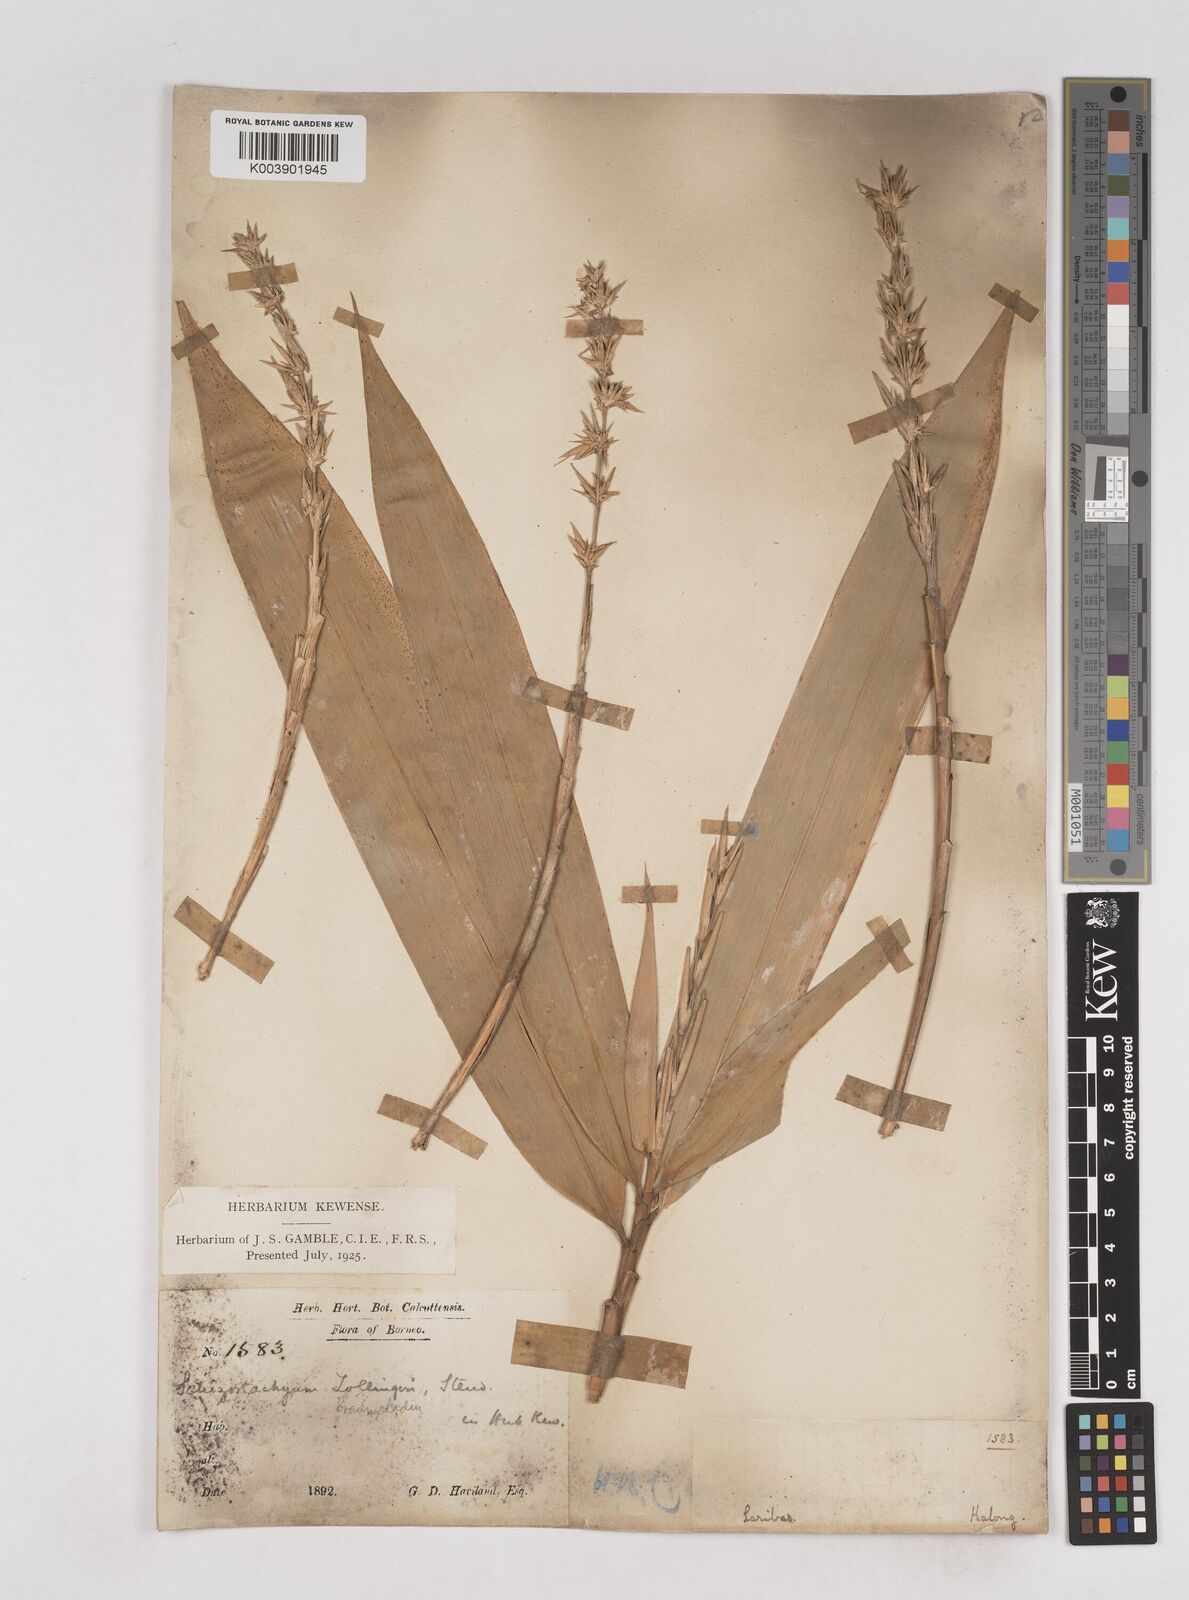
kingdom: Plantae
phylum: Tracheophyta
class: Liliopsida
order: Poales
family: Poaceae
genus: Schizostachyum
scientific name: Schizostachyum brachycladum
